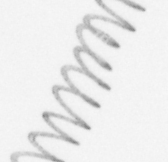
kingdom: Chromista
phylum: Ochrophyta
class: Bacillariophyceae
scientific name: Bacillariophyceae
